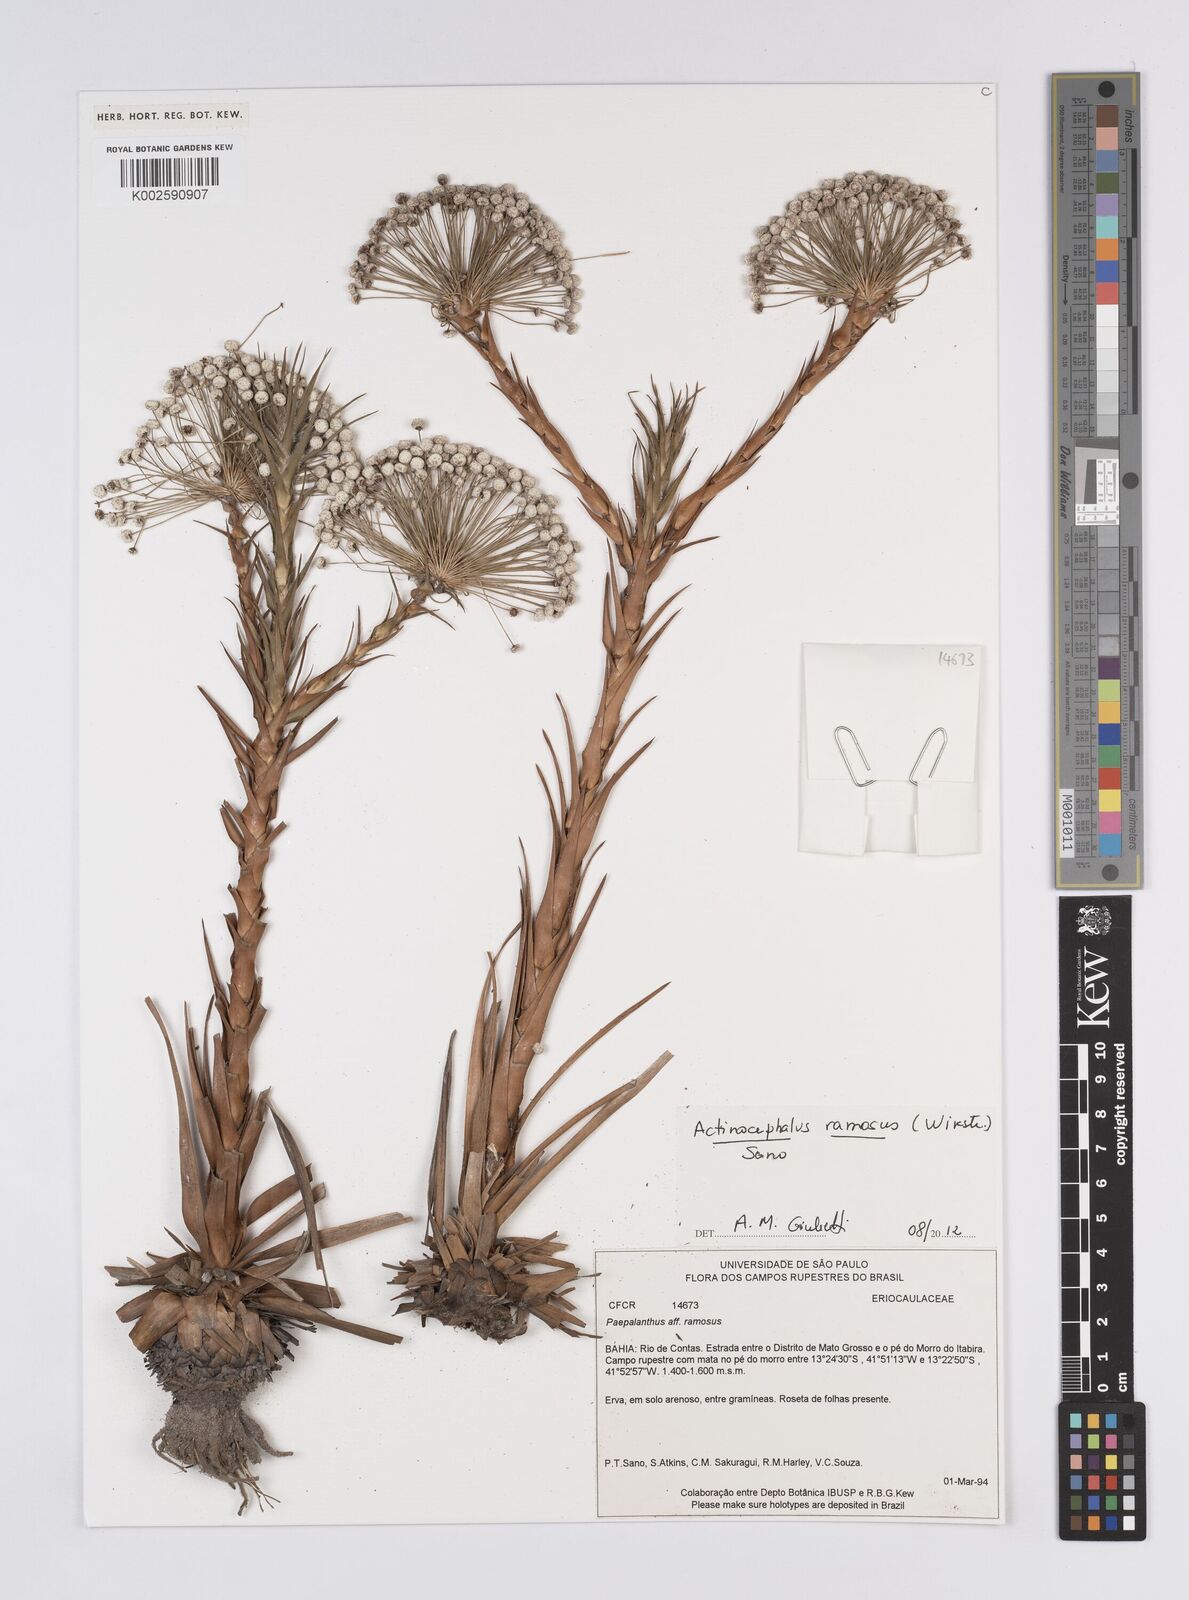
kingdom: Plantae
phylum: Tracheophyta
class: Liliopsida
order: Poales
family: Eriocaulaceae
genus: Paepalanthus
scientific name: Paepalanthus ramosus
